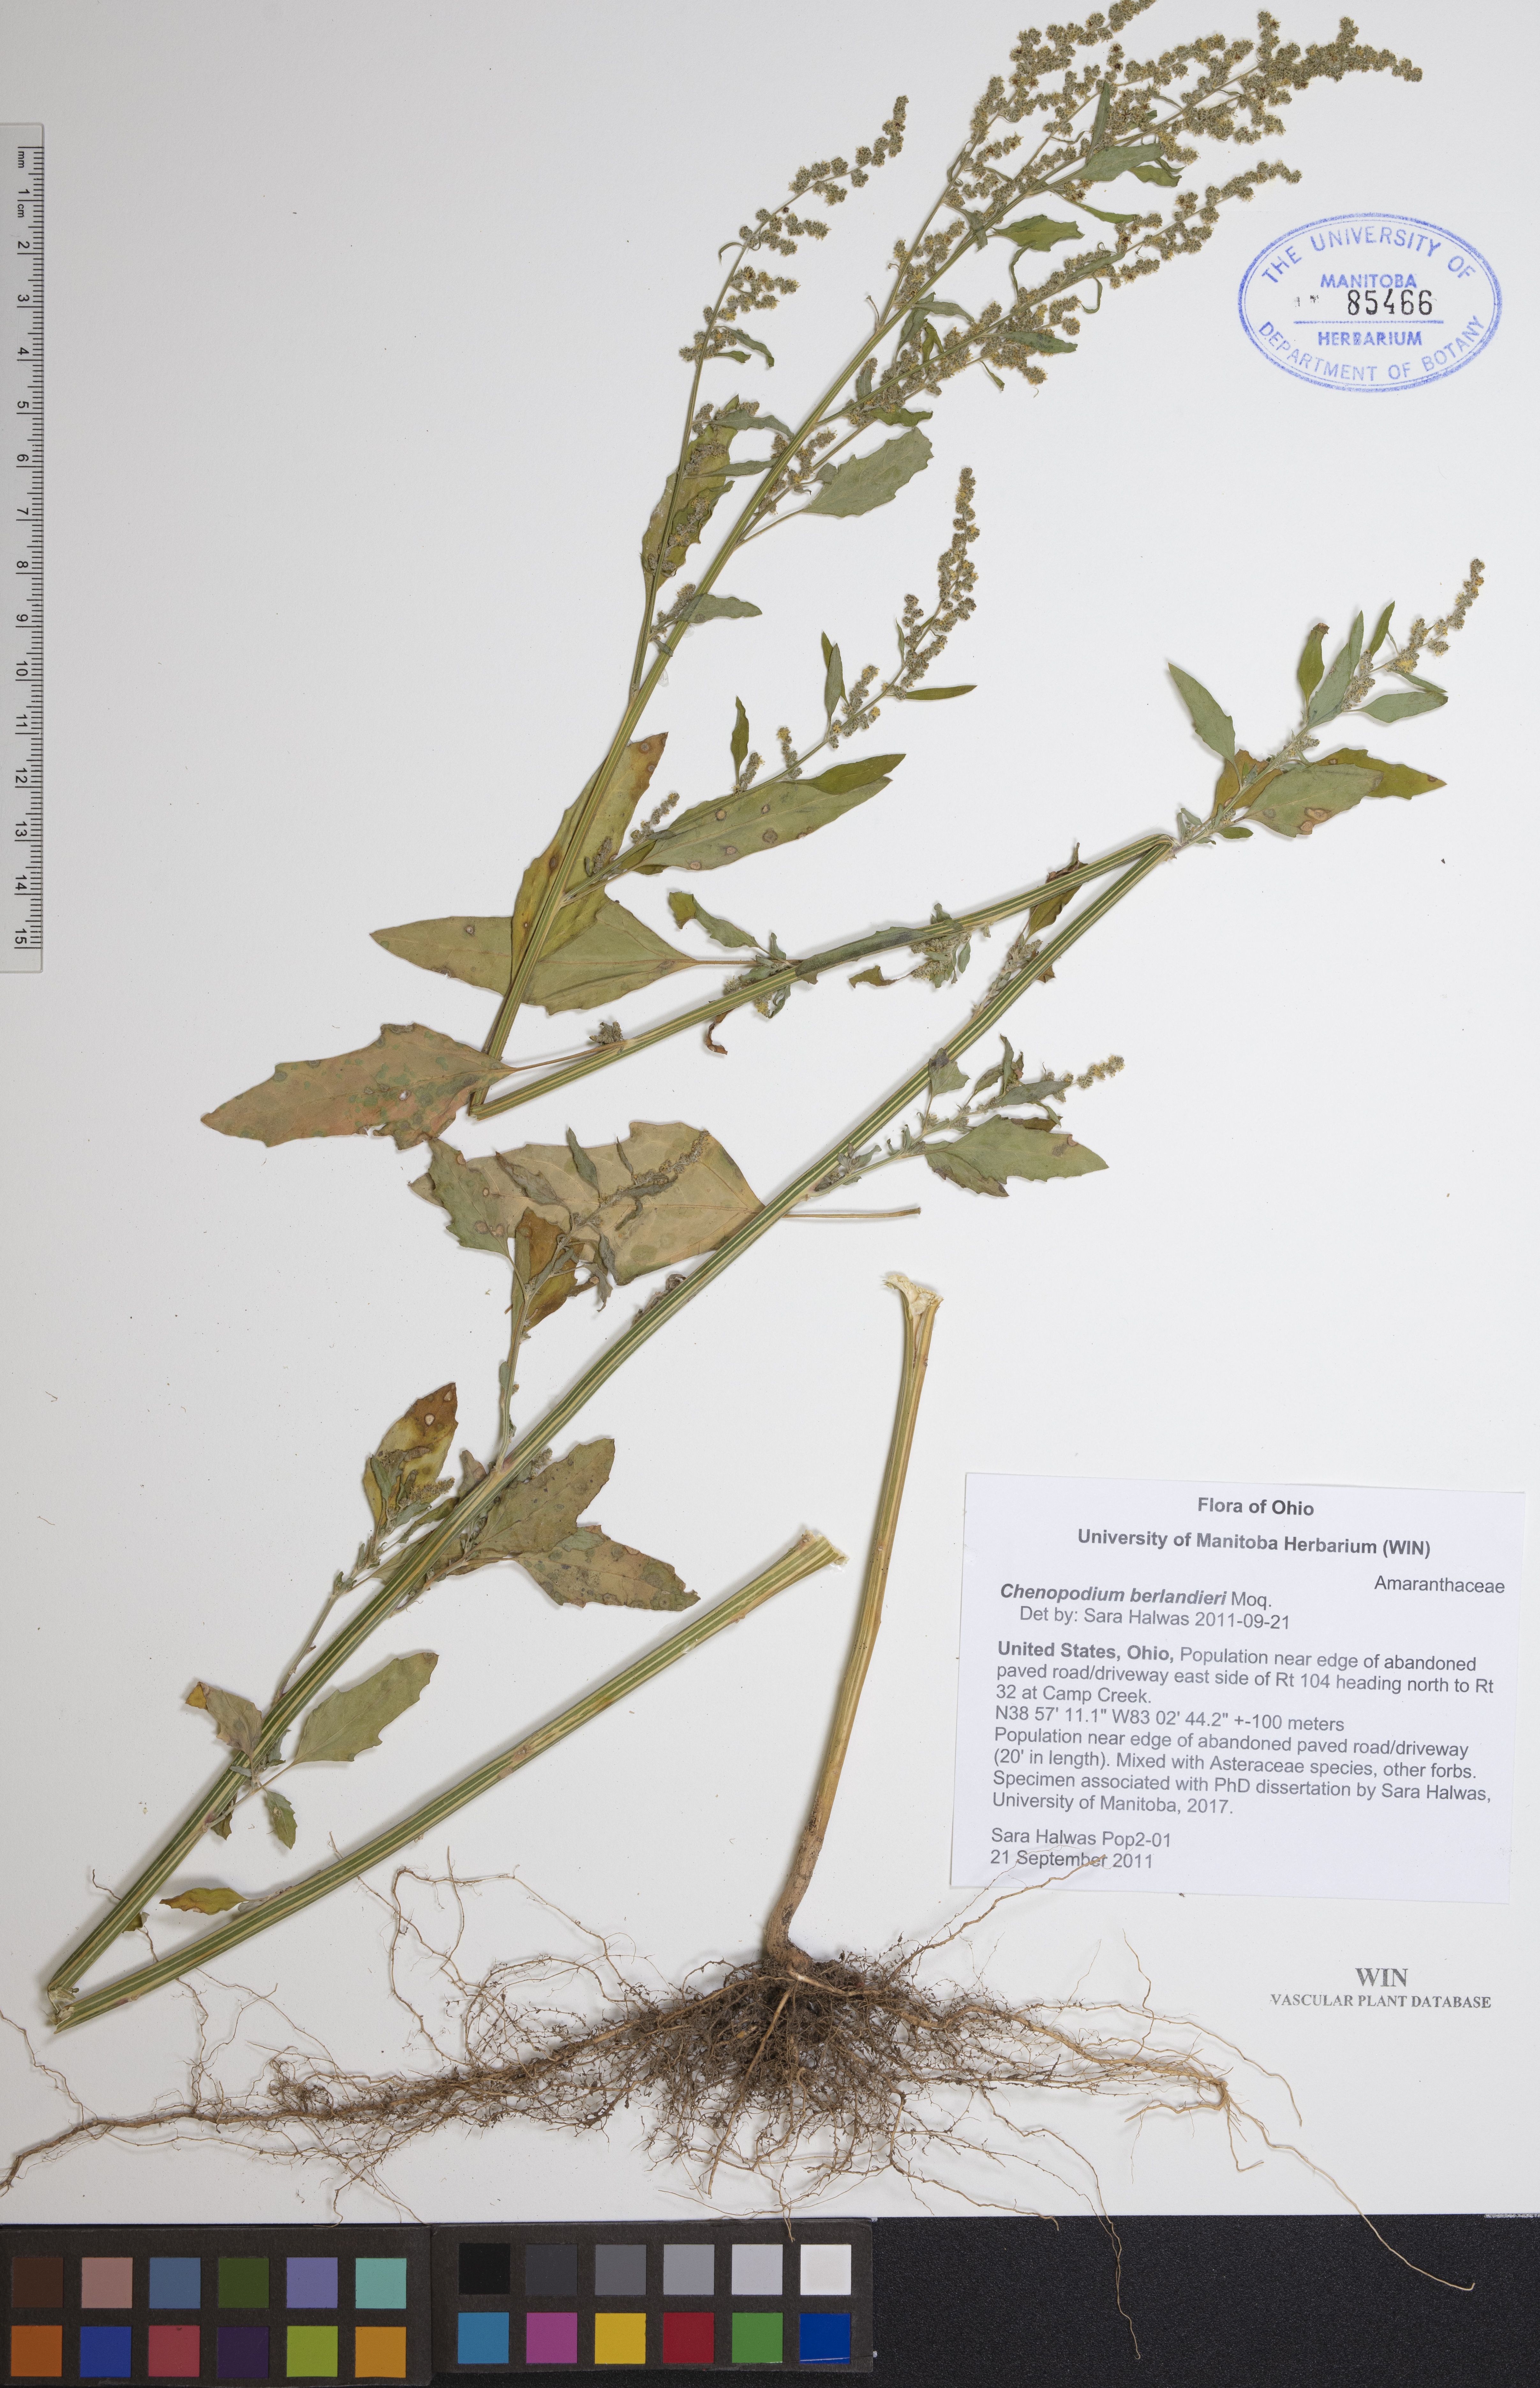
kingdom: Plantae
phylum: Tracheophyta
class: Magnoliopsida
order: Caryophyllales
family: Amaranthaceae
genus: Chenopodium
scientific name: Chenopodium berlandieri
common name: Pit-seed goosefoot
